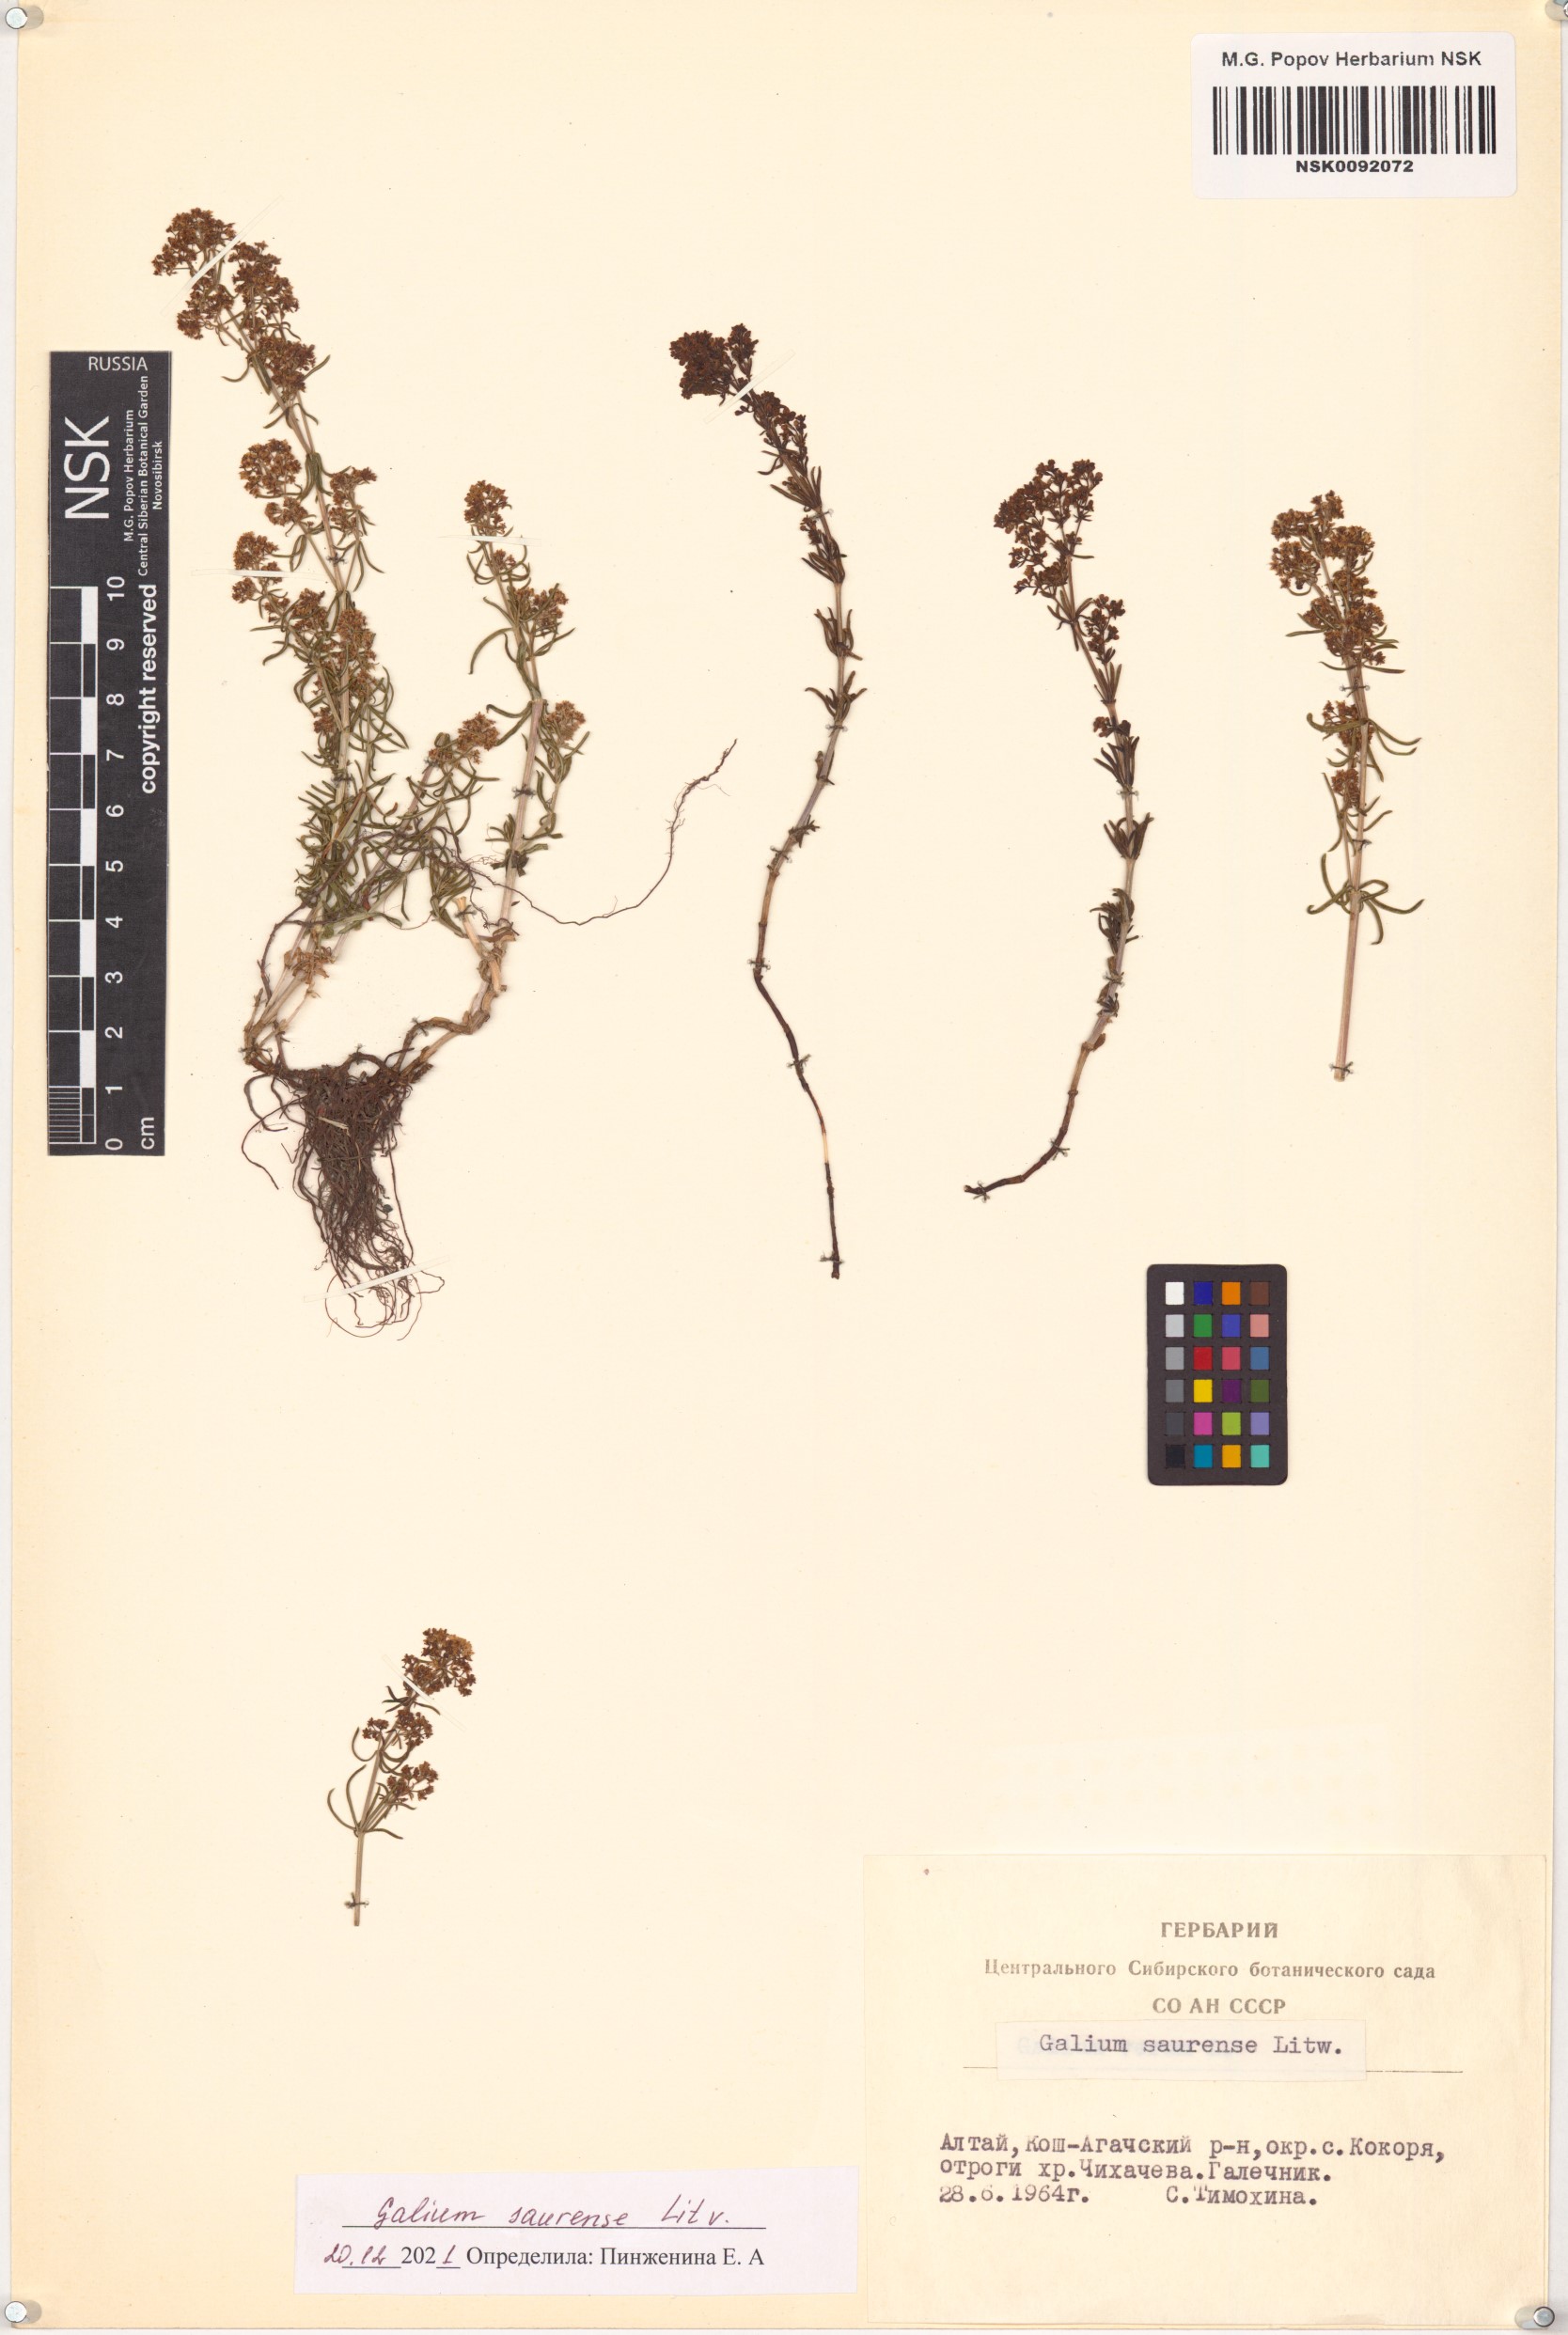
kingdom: Plantae
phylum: Tracheophyta
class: Magnoliopsida
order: Gentianales
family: Rubiaceae
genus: Galium
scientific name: Galium saurense
